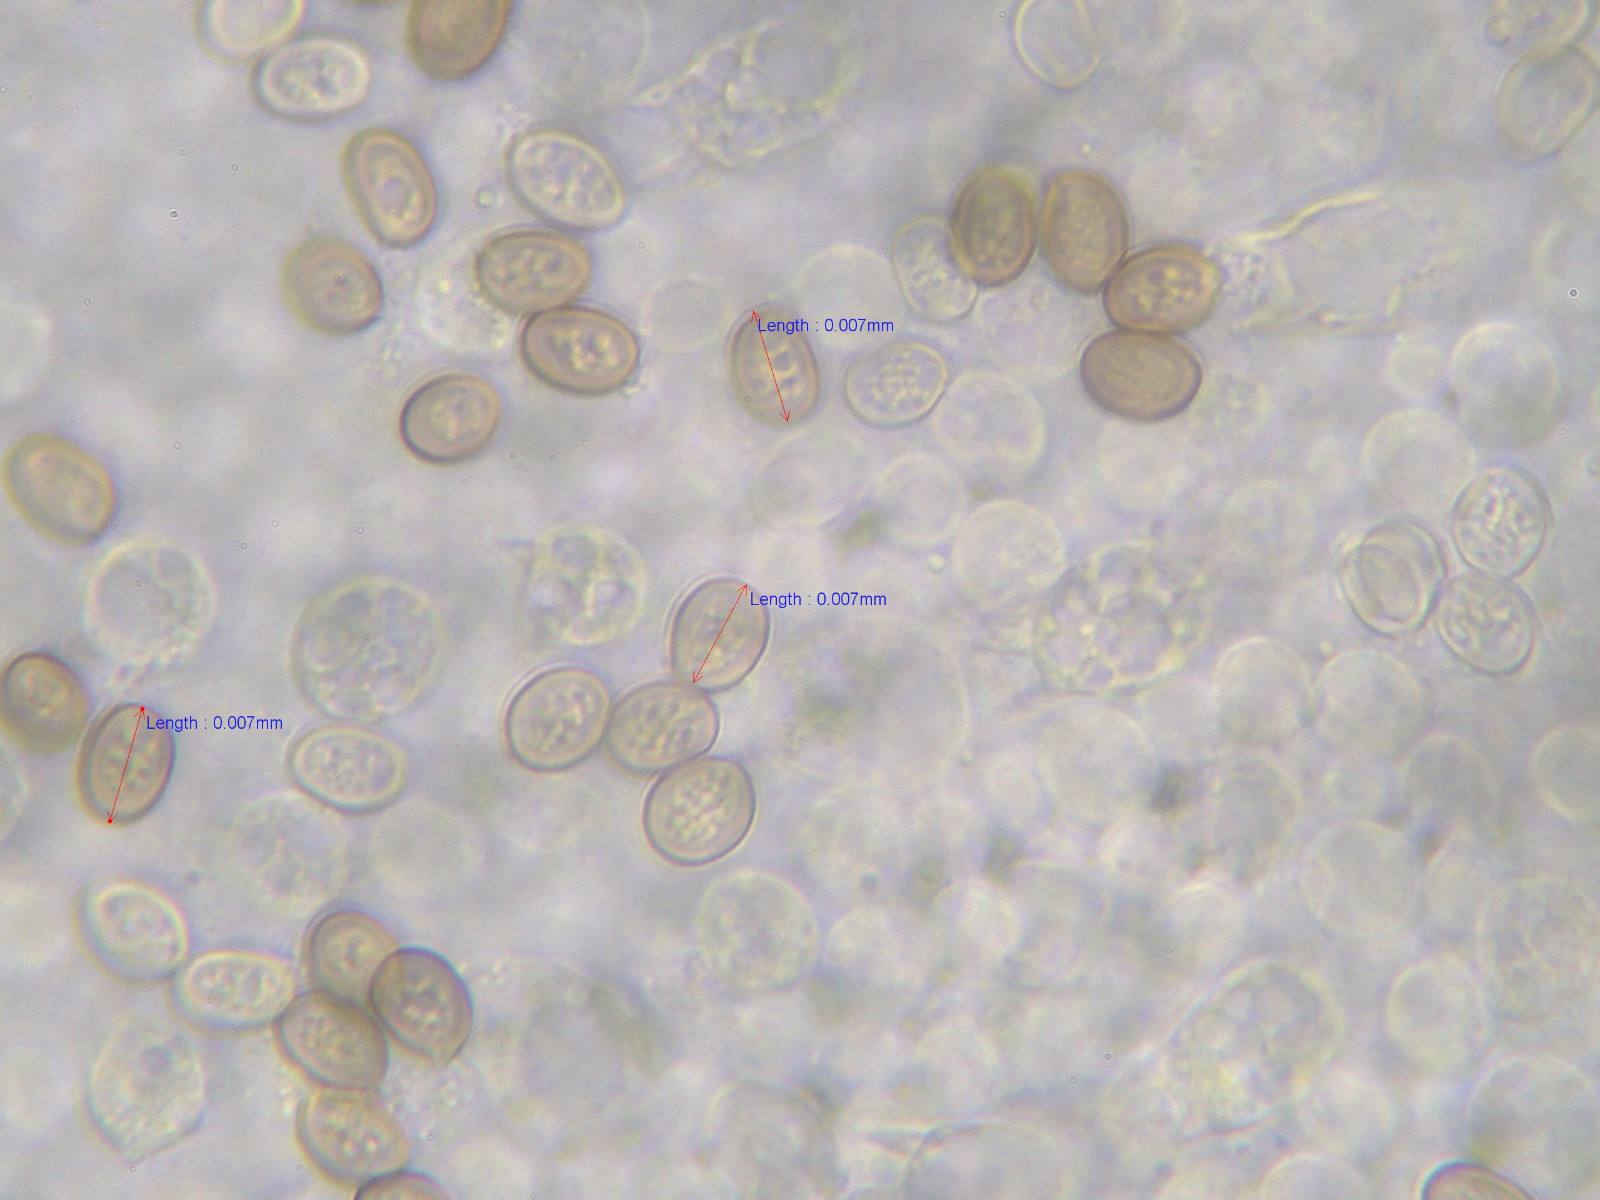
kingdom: Fungi
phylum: Basidiomycota
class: Agaricomycetes
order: Agaricales
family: Agaricaceae
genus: Agaricus
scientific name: Agaricus litoralis
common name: kyst-champignon
